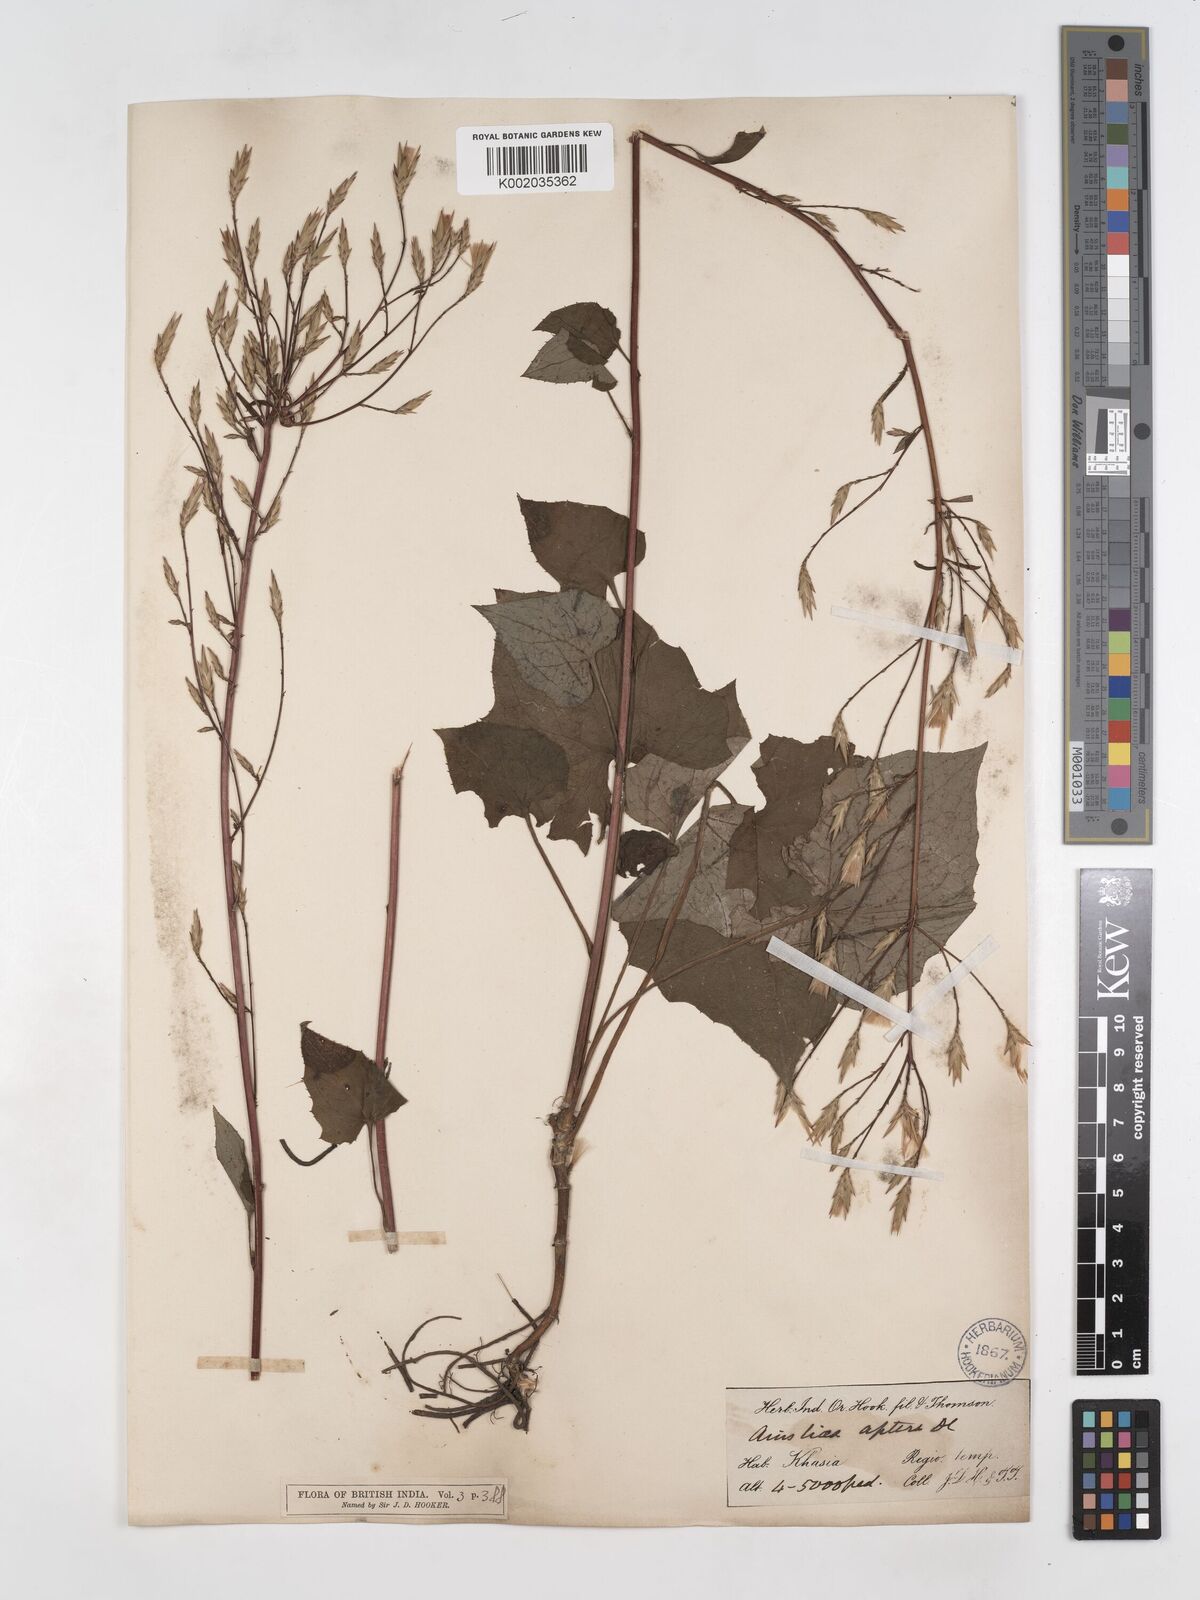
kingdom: Plantae
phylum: Tracheophyta
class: Magnoliopsida
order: Asterales
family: Asteraceae
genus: Ainsliaea
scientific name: Ainsliaea aptera
